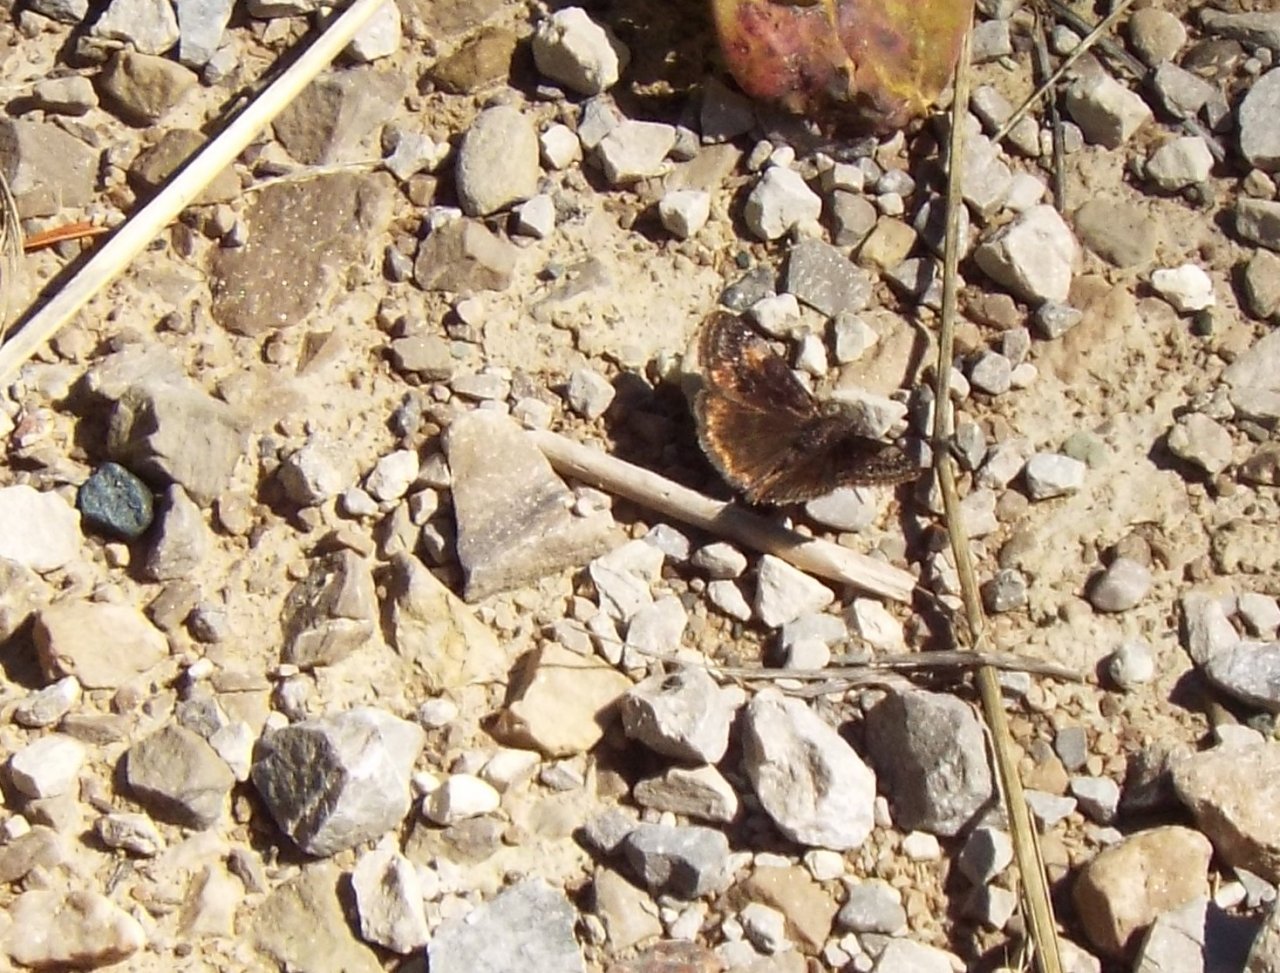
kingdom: Animalia
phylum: Arthropoda
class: Insecta
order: Lepidoptera
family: Hesperiidae
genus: Erynnis
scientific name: Erynnis
